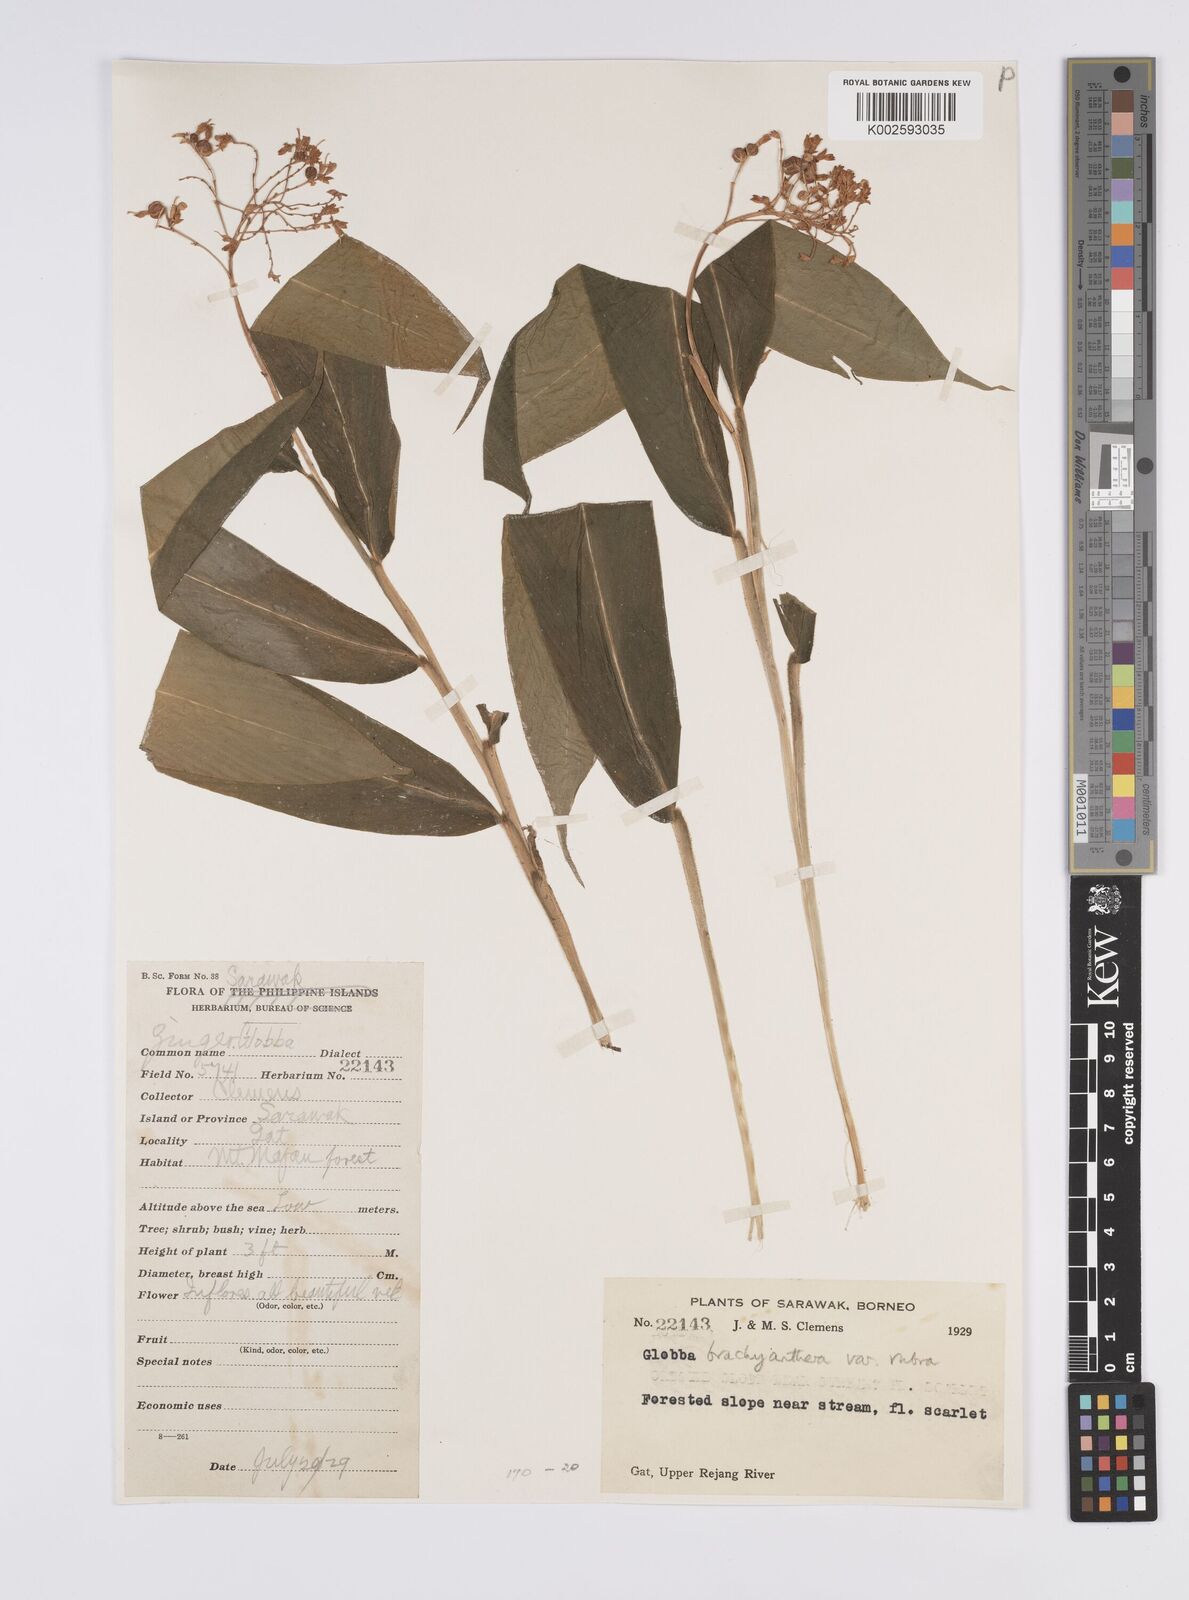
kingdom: Plantae
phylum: Tracheophyta
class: Liliopsida
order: Zingiberales
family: Zingiberaceae
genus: Globba
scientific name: Globba brachyanthera
